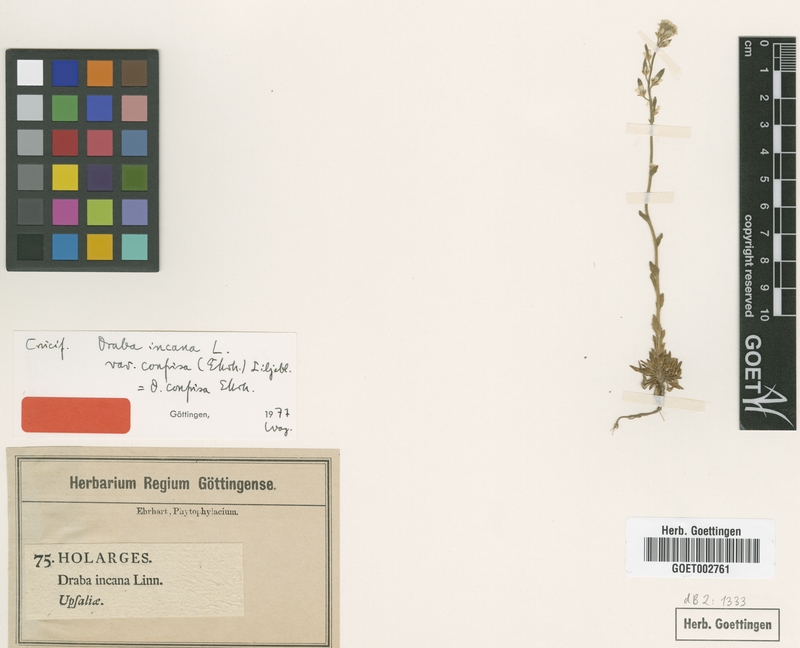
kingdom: Plantae
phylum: Tracheophyta
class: Magnoliopsida
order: Brassicales
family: Brassicaceae
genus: Draba
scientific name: Draba incana
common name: Hoary whitlow-grass
